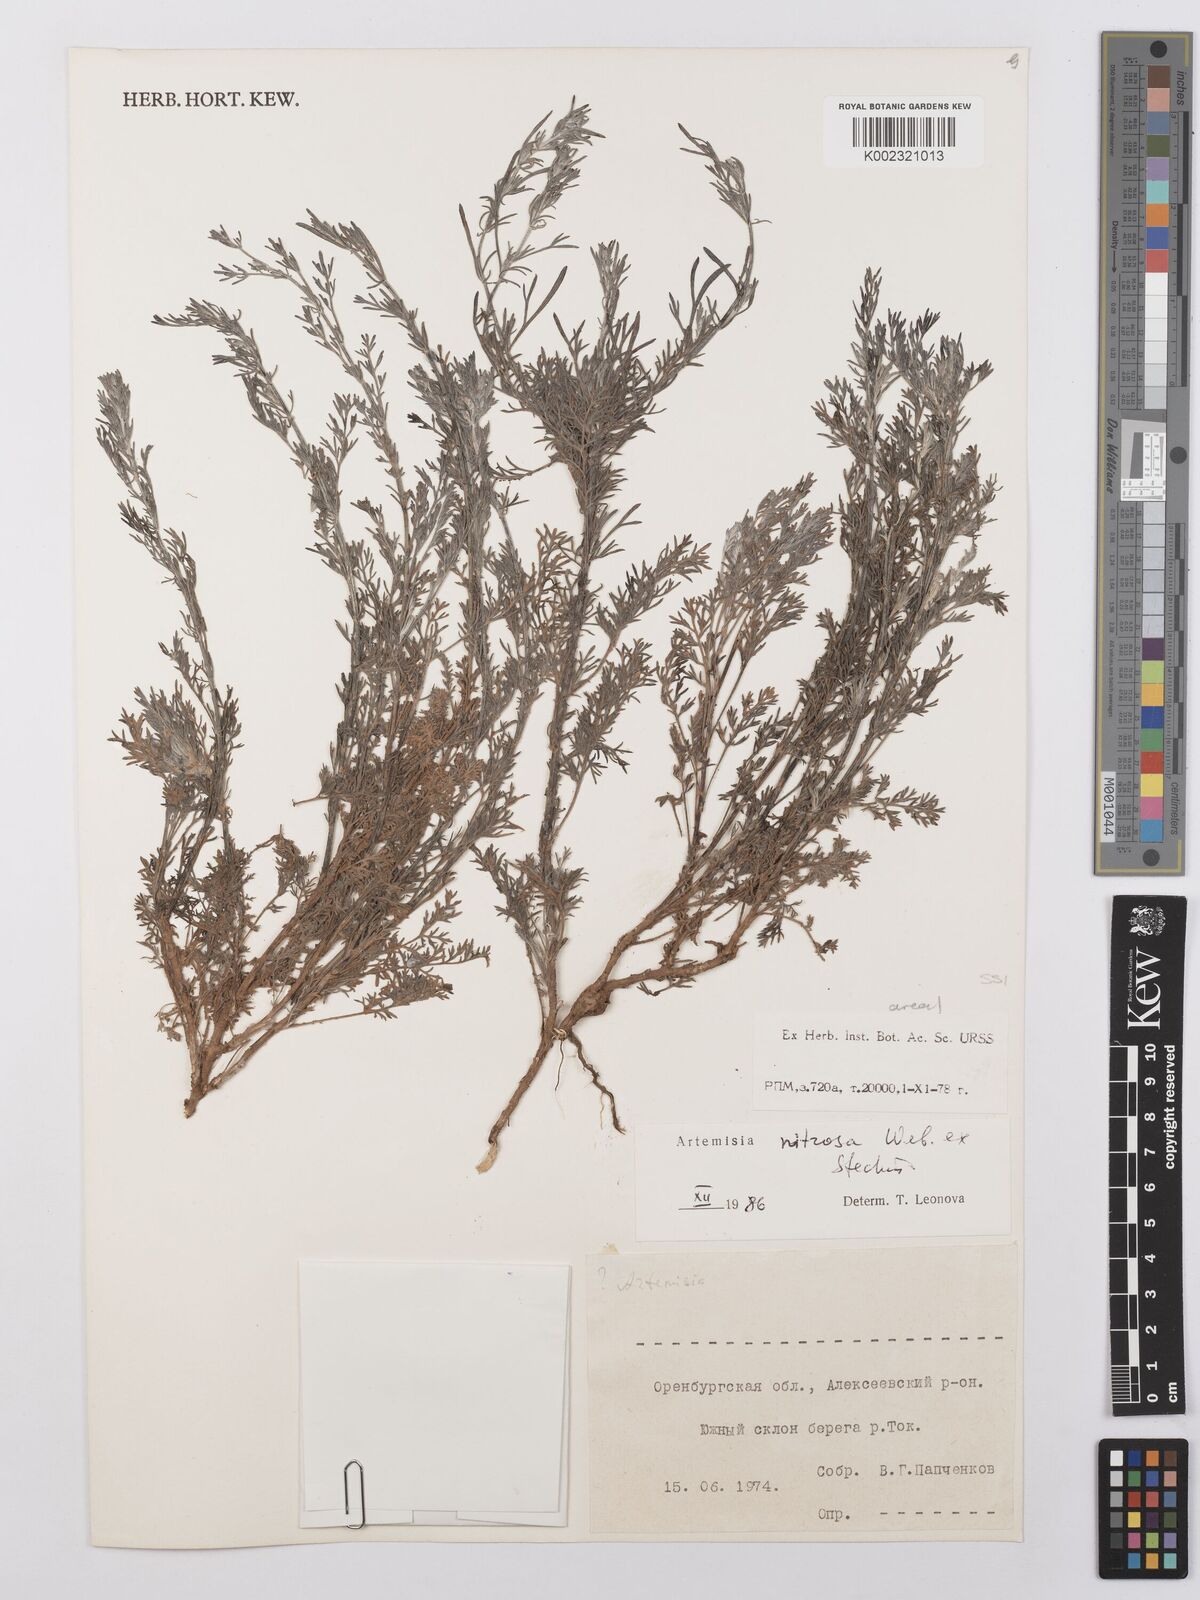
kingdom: Plantae
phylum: Tracheophyta
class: Magnoliopsida
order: Asterales
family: Asteraceae
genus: Artemisia
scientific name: Artemisia nitrosa
